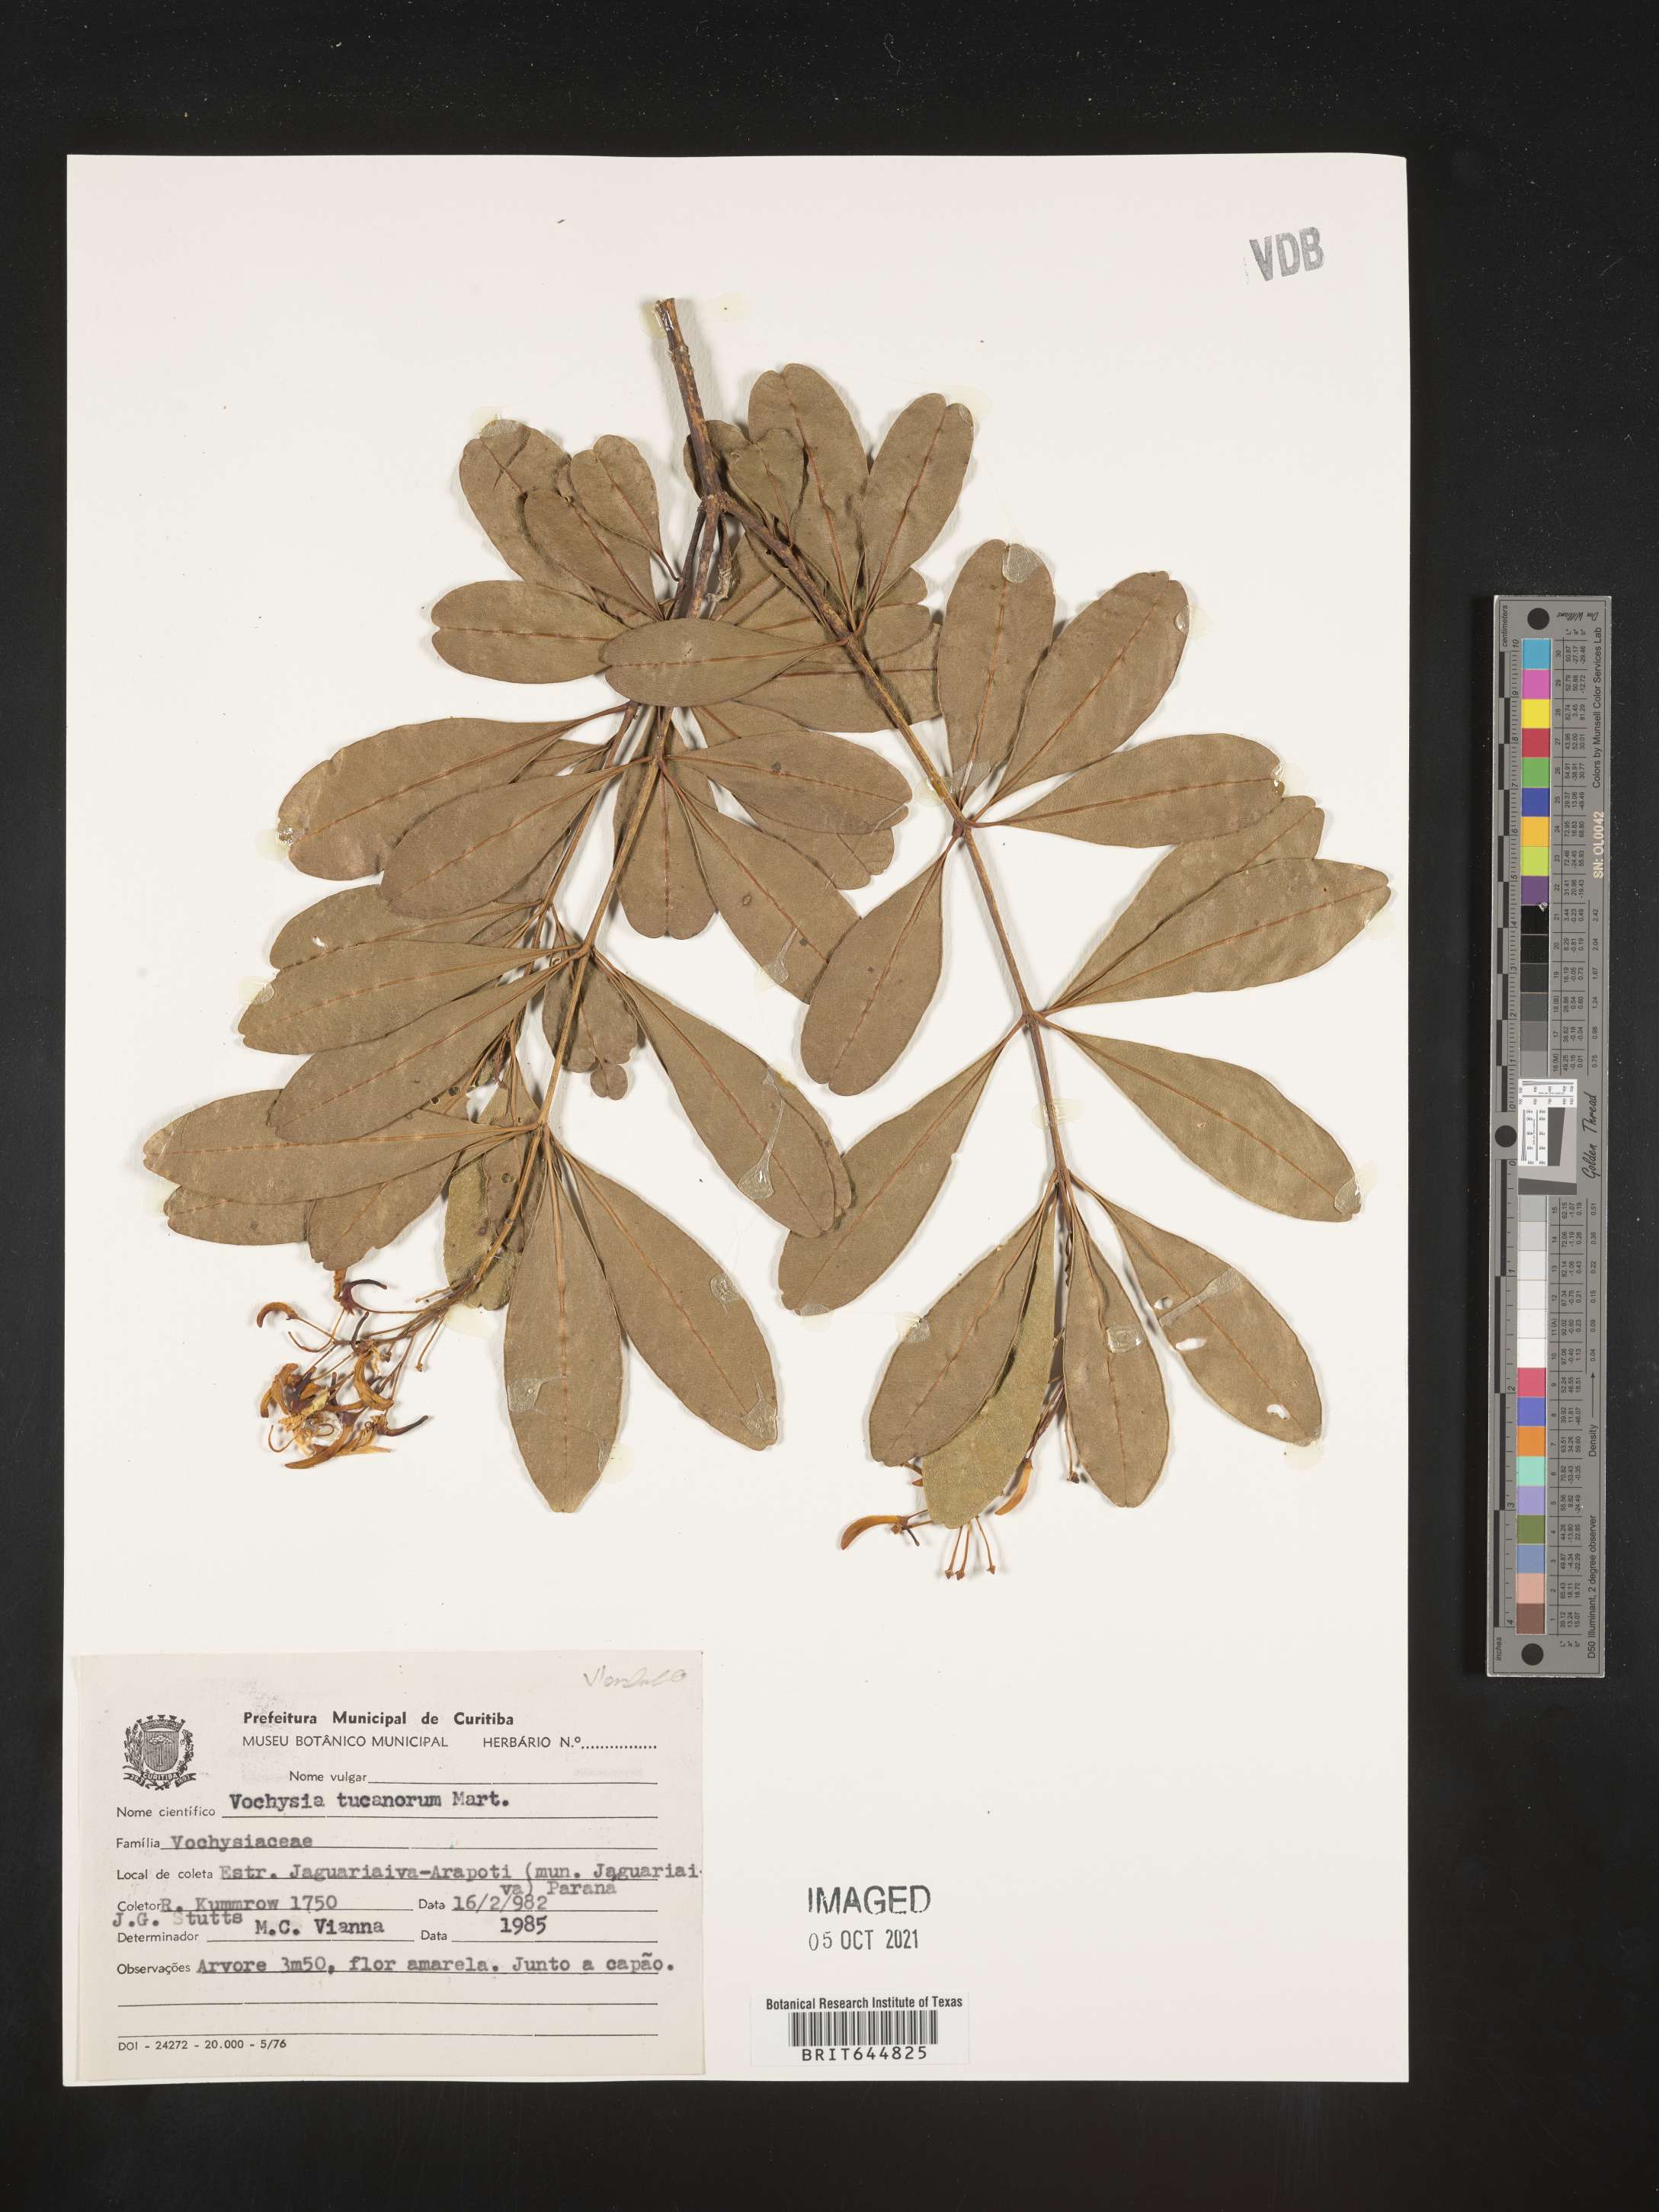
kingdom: Plantae
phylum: Tracheophyta
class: Magnoliopsida
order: Myrtales
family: Vochysiaceae
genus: Vochysia
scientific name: Vochysia
